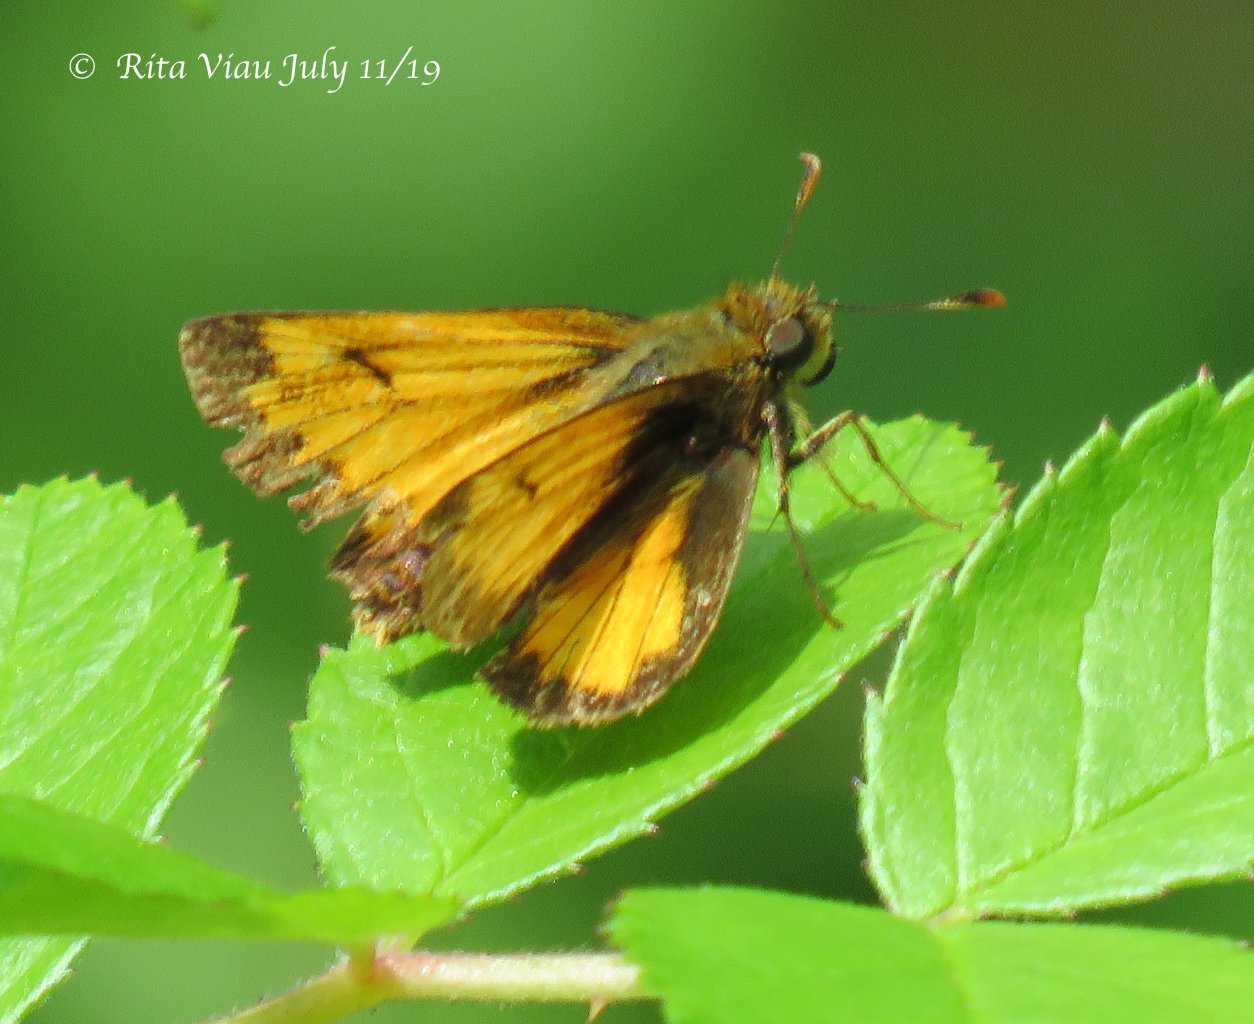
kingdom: Animalia
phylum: Arthropoda
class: Insecta
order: Lepidoptera
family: Hesperiidae
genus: Lon
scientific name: Lon hobomok
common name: Hobomok Skipper
